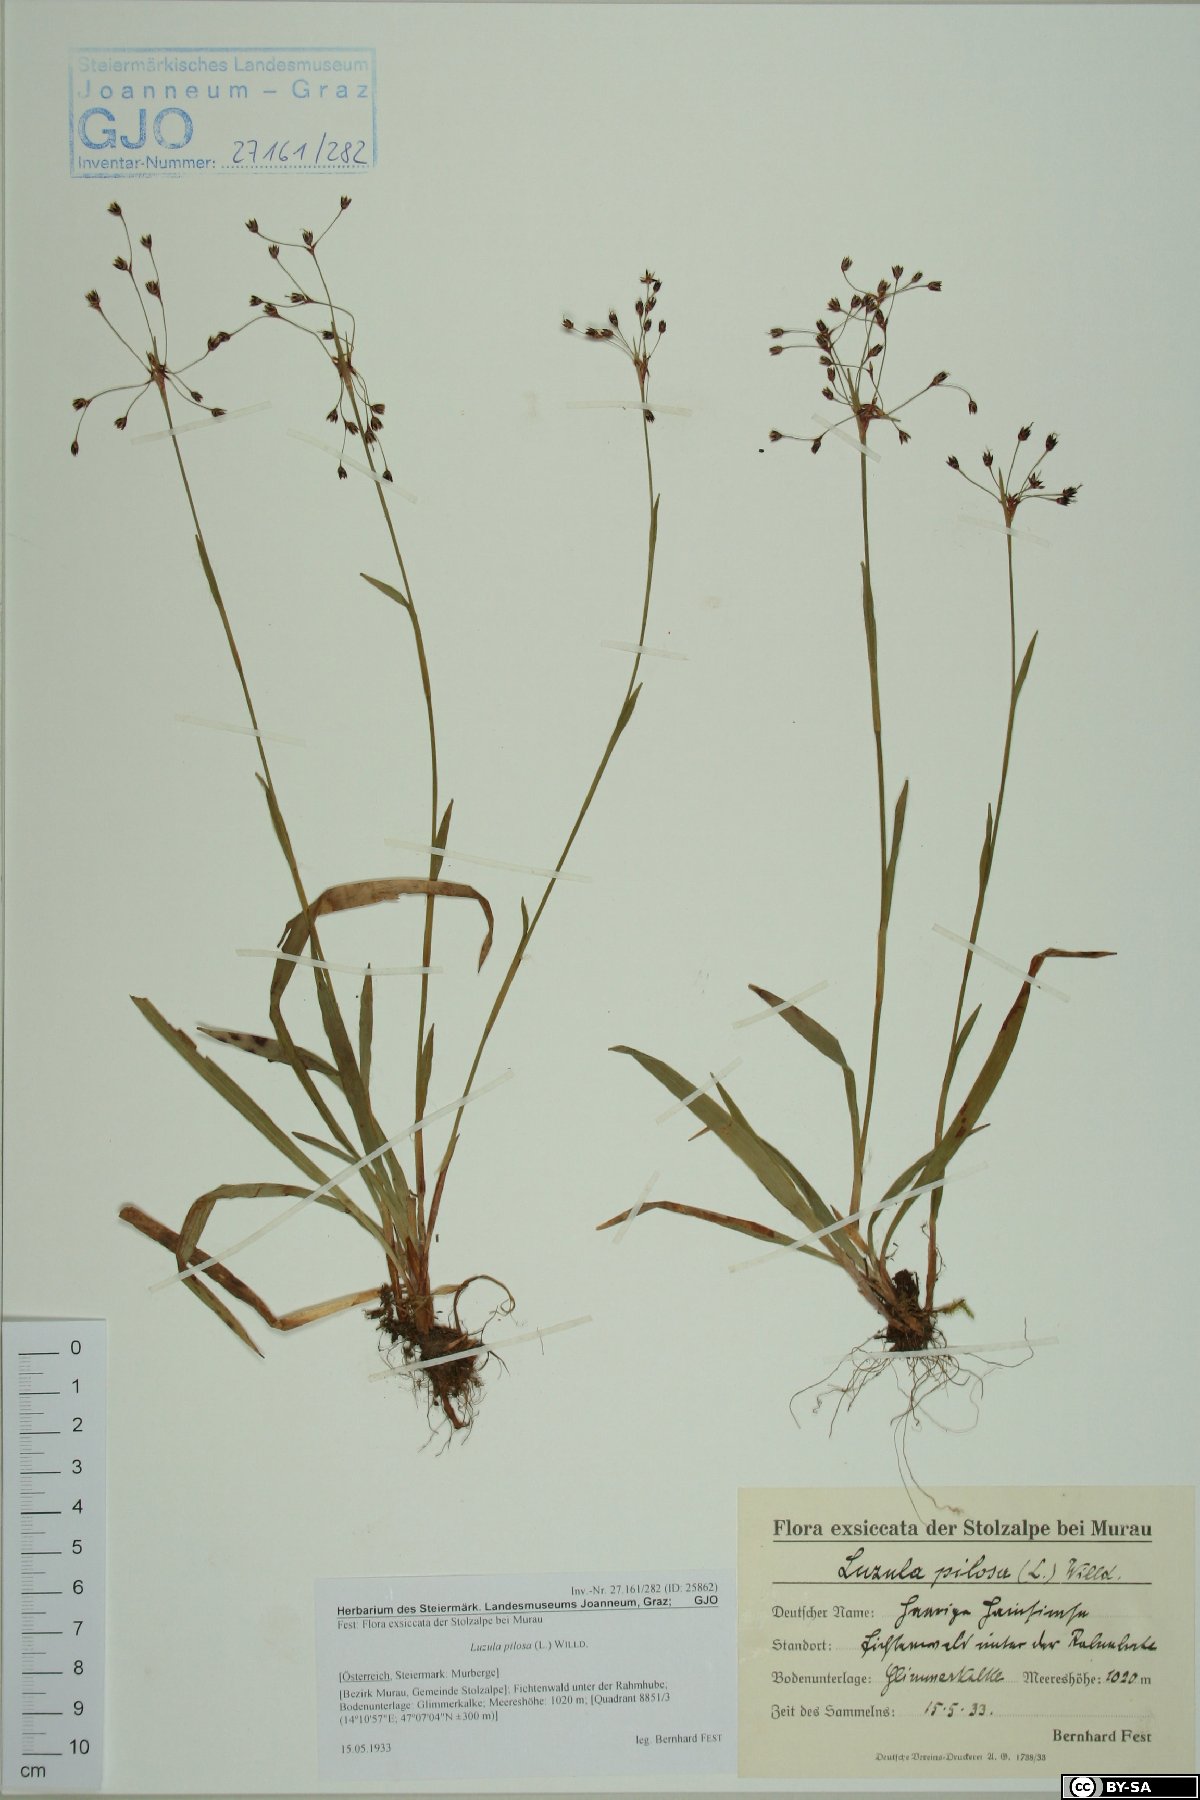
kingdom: Plantae
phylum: Tracheophyta
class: Liliopsida
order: Poales
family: Juncaceae
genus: Luzula
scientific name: Luzula pilosa
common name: Hairy wood-rush
